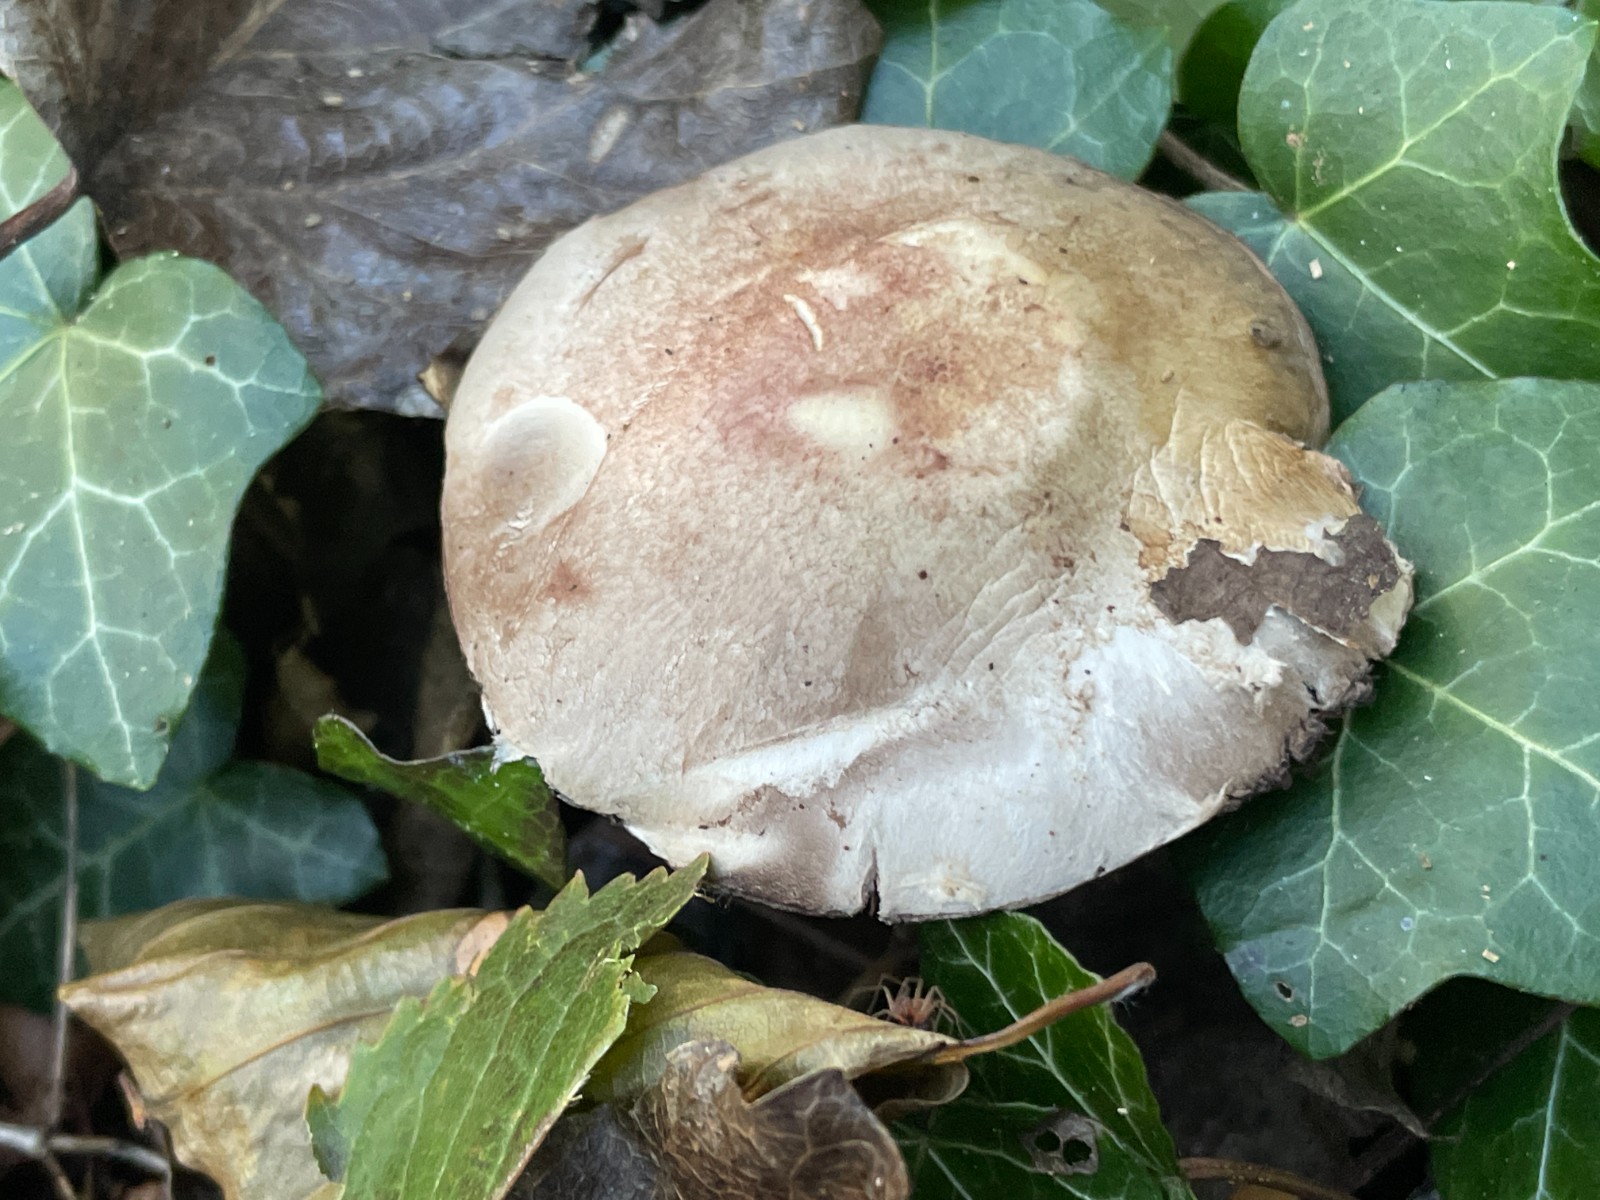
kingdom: Fungi
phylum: Basidiomycota
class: Agaricomycetes
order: Agaricales
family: Agaricaceae
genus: Agaricus
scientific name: Agaricus dulcidulus
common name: blegrød champignon
